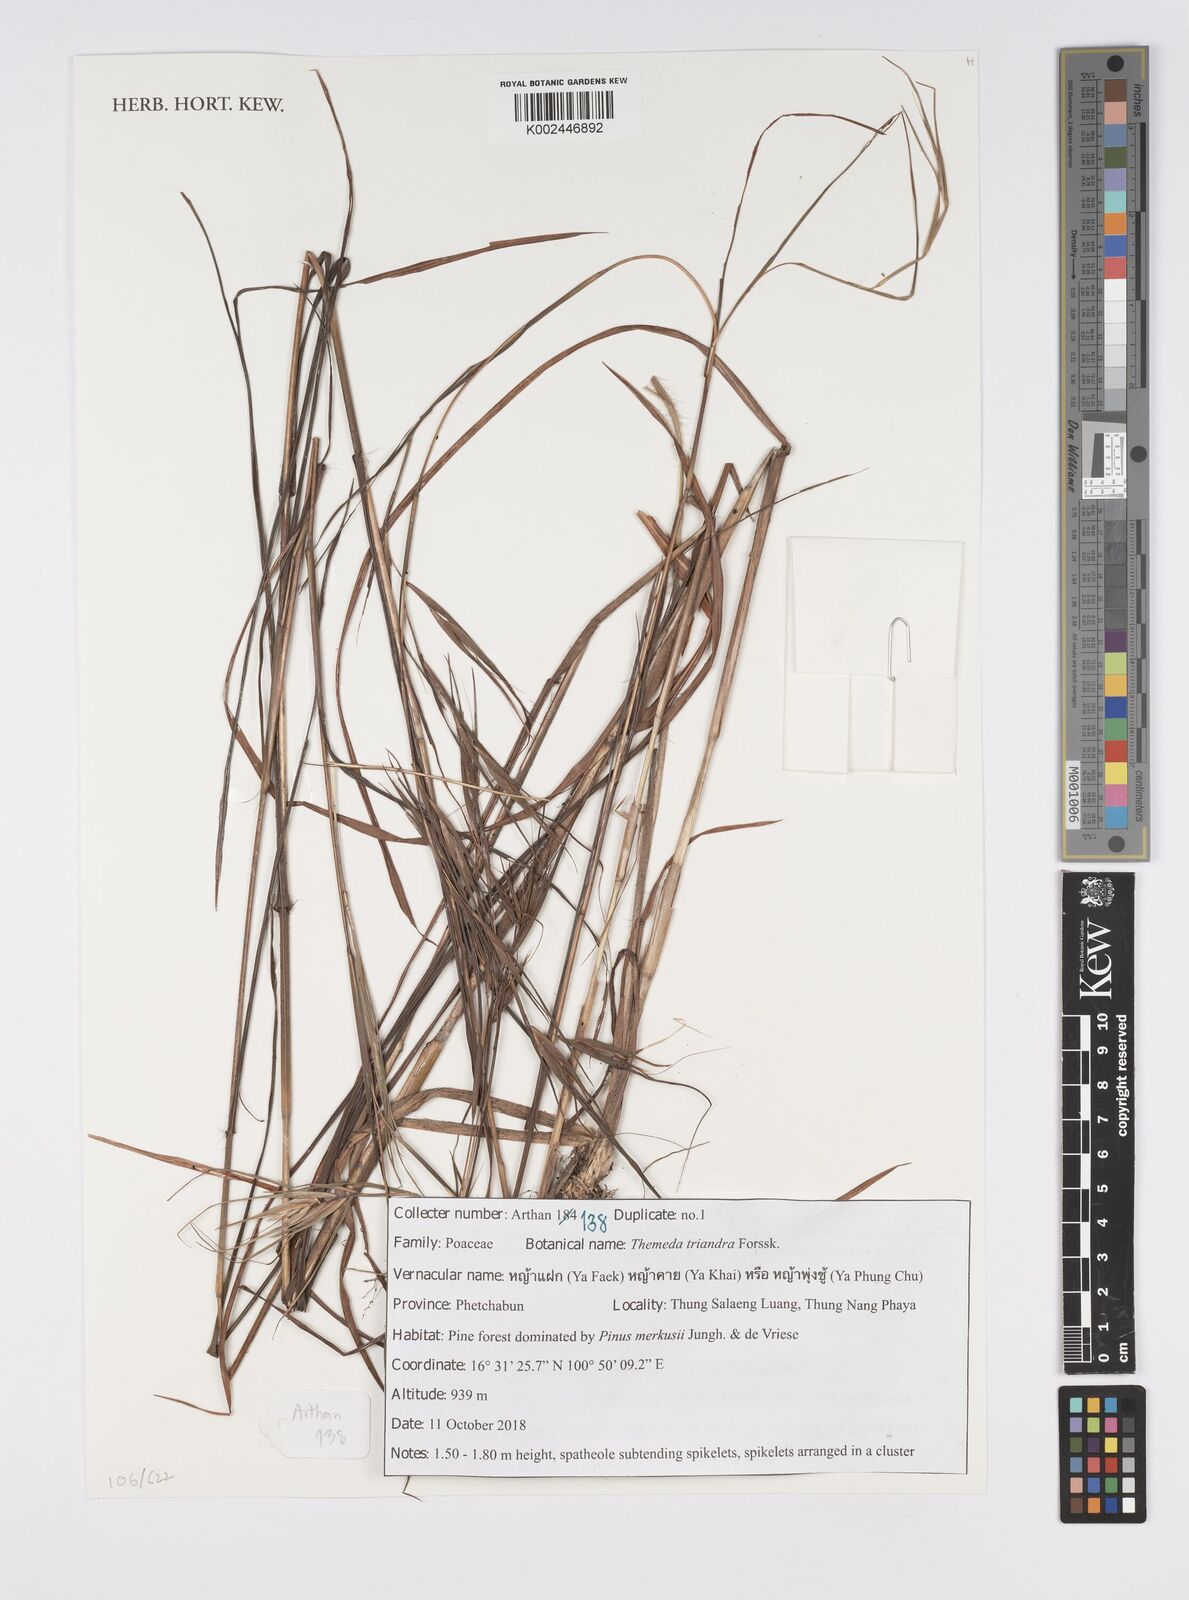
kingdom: Plantae
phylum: Tracheophyta
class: Liliopsida
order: Poales
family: Poaceae
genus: Themeda
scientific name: Themeda triandra
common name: Kangaroo grass
